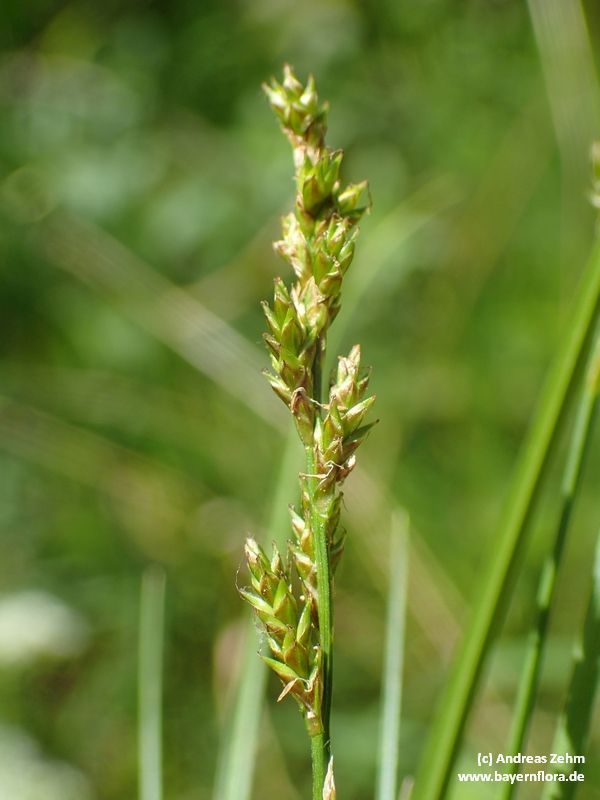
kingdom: Plantae
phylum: Tracheophyta
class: Liliopsida
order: Poales
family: Cyperaceae
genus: Carex
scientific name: Carex elongata
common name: Elongated sedge
